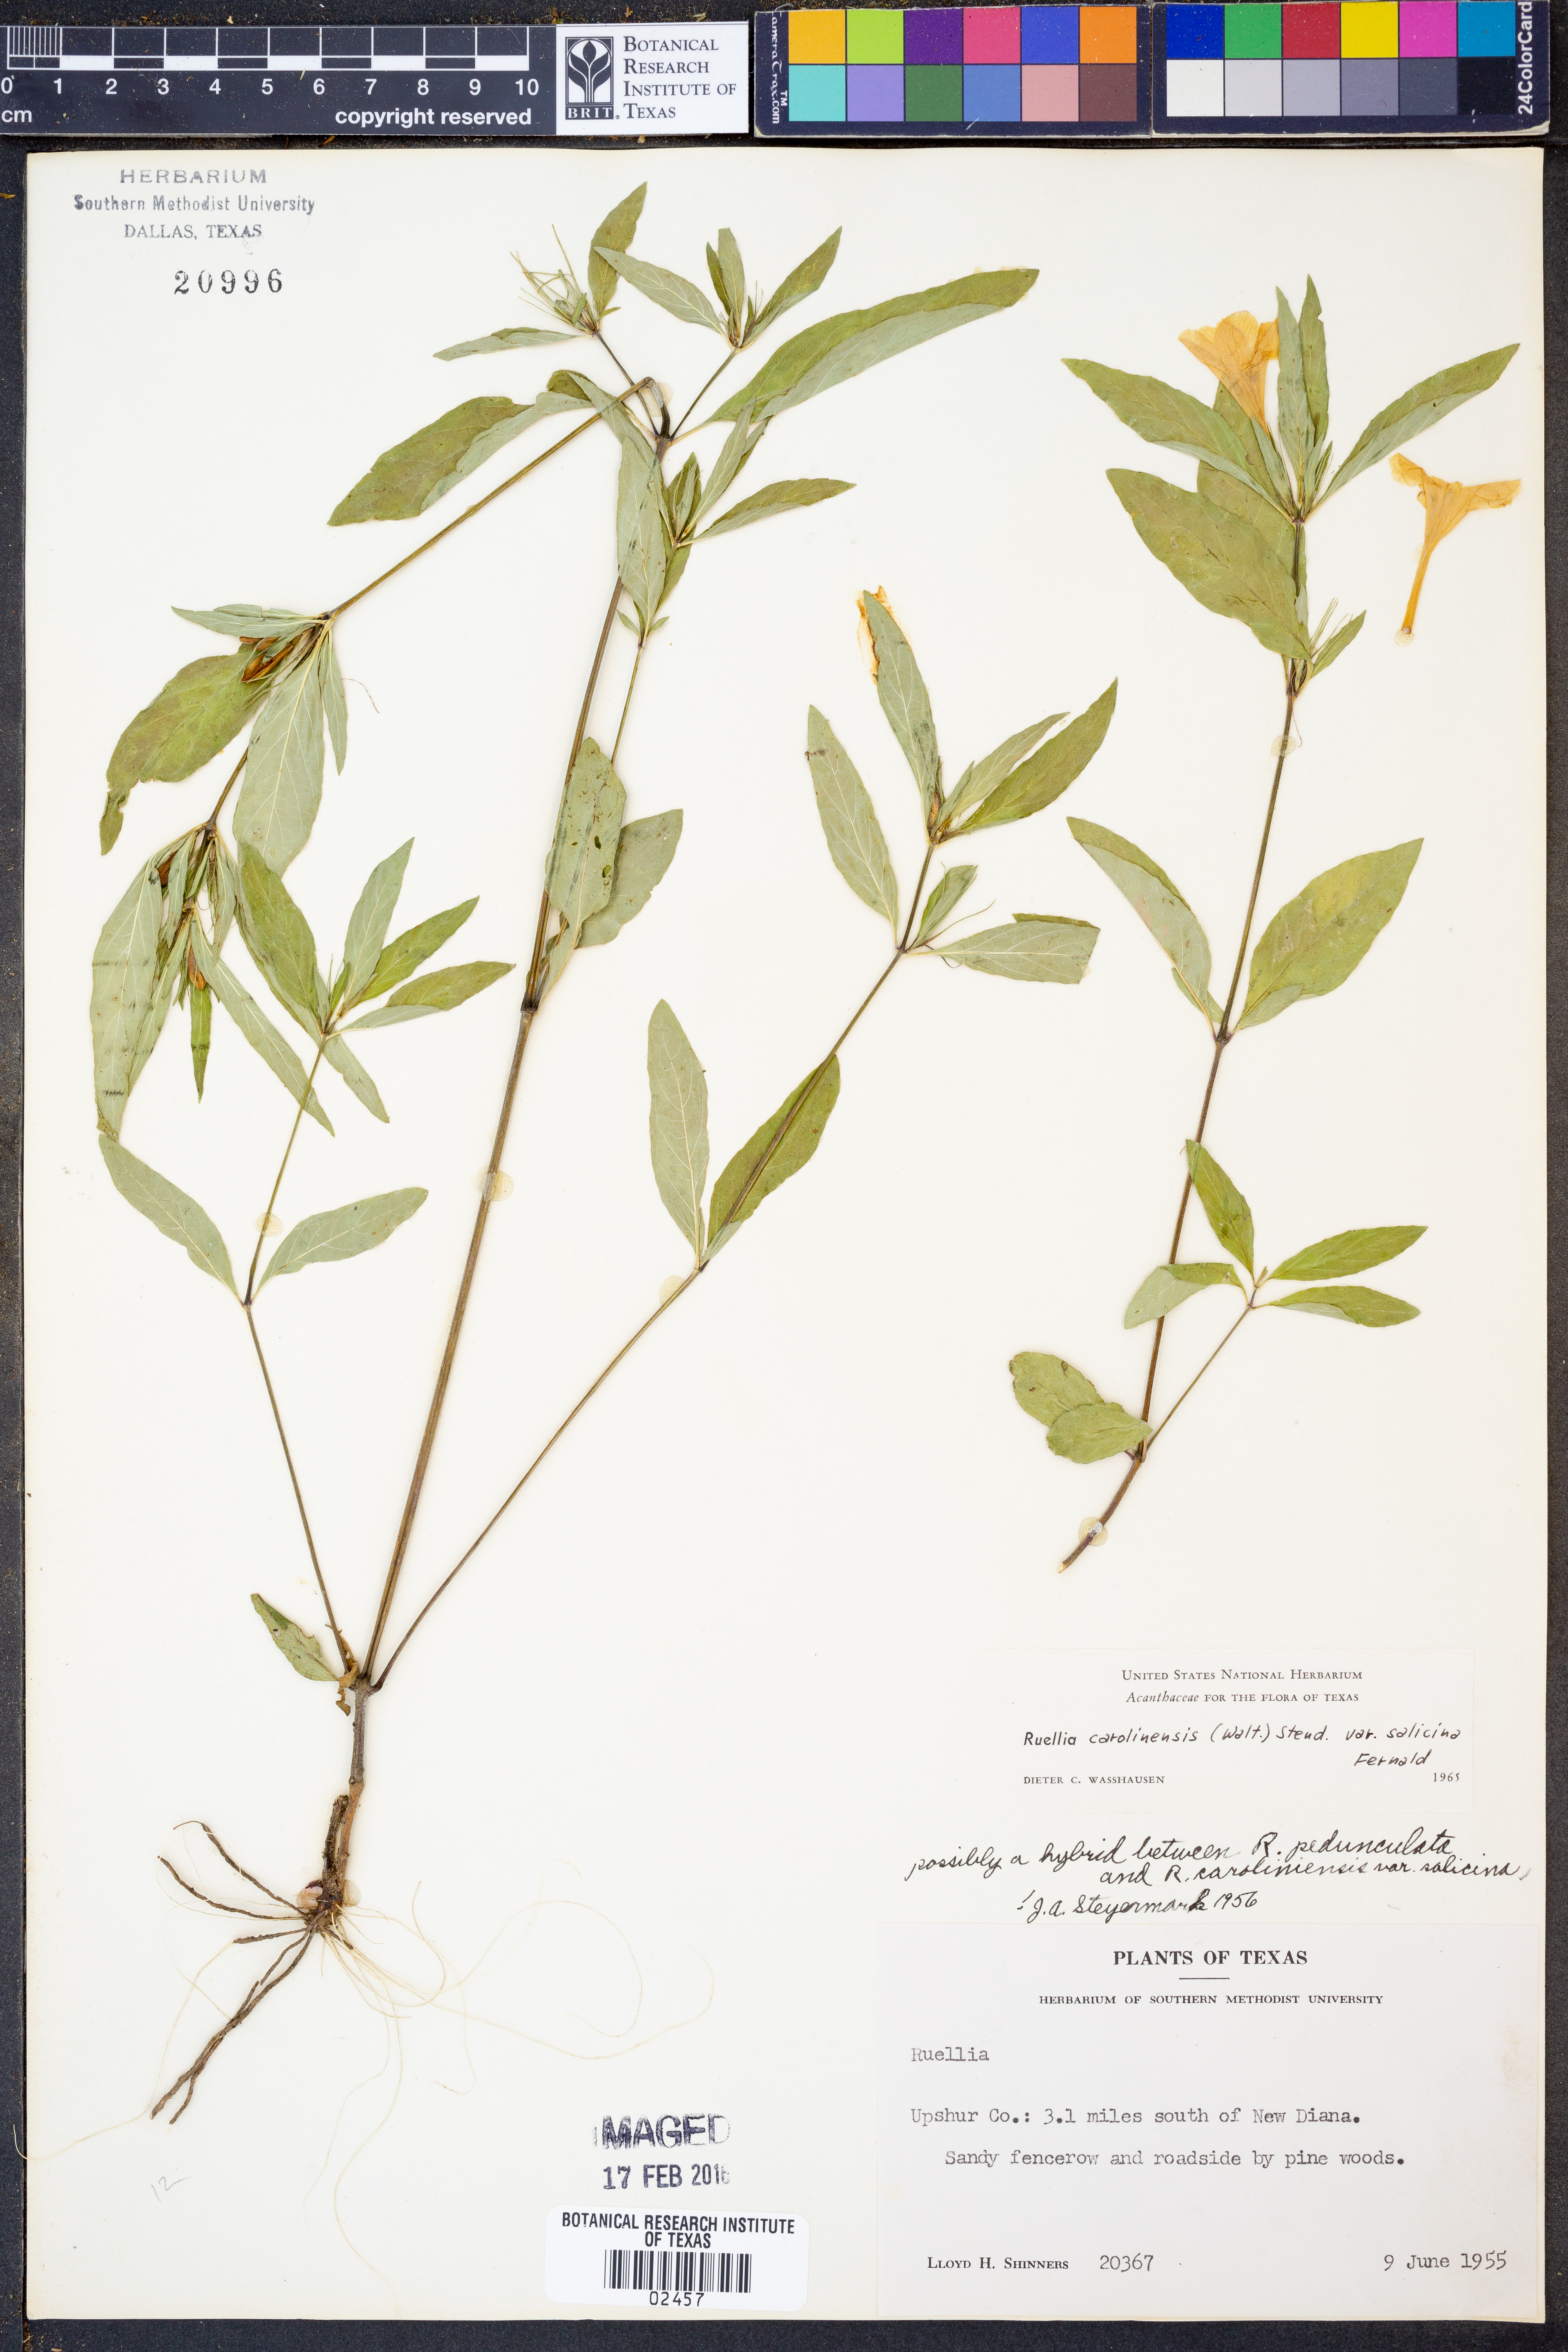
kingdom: Plantae
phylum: Tracheophyta
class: Magnoliopsida
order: Lamiales
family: Acanthaceae
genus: Ruellia
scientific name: Ruellia caroliniensis
